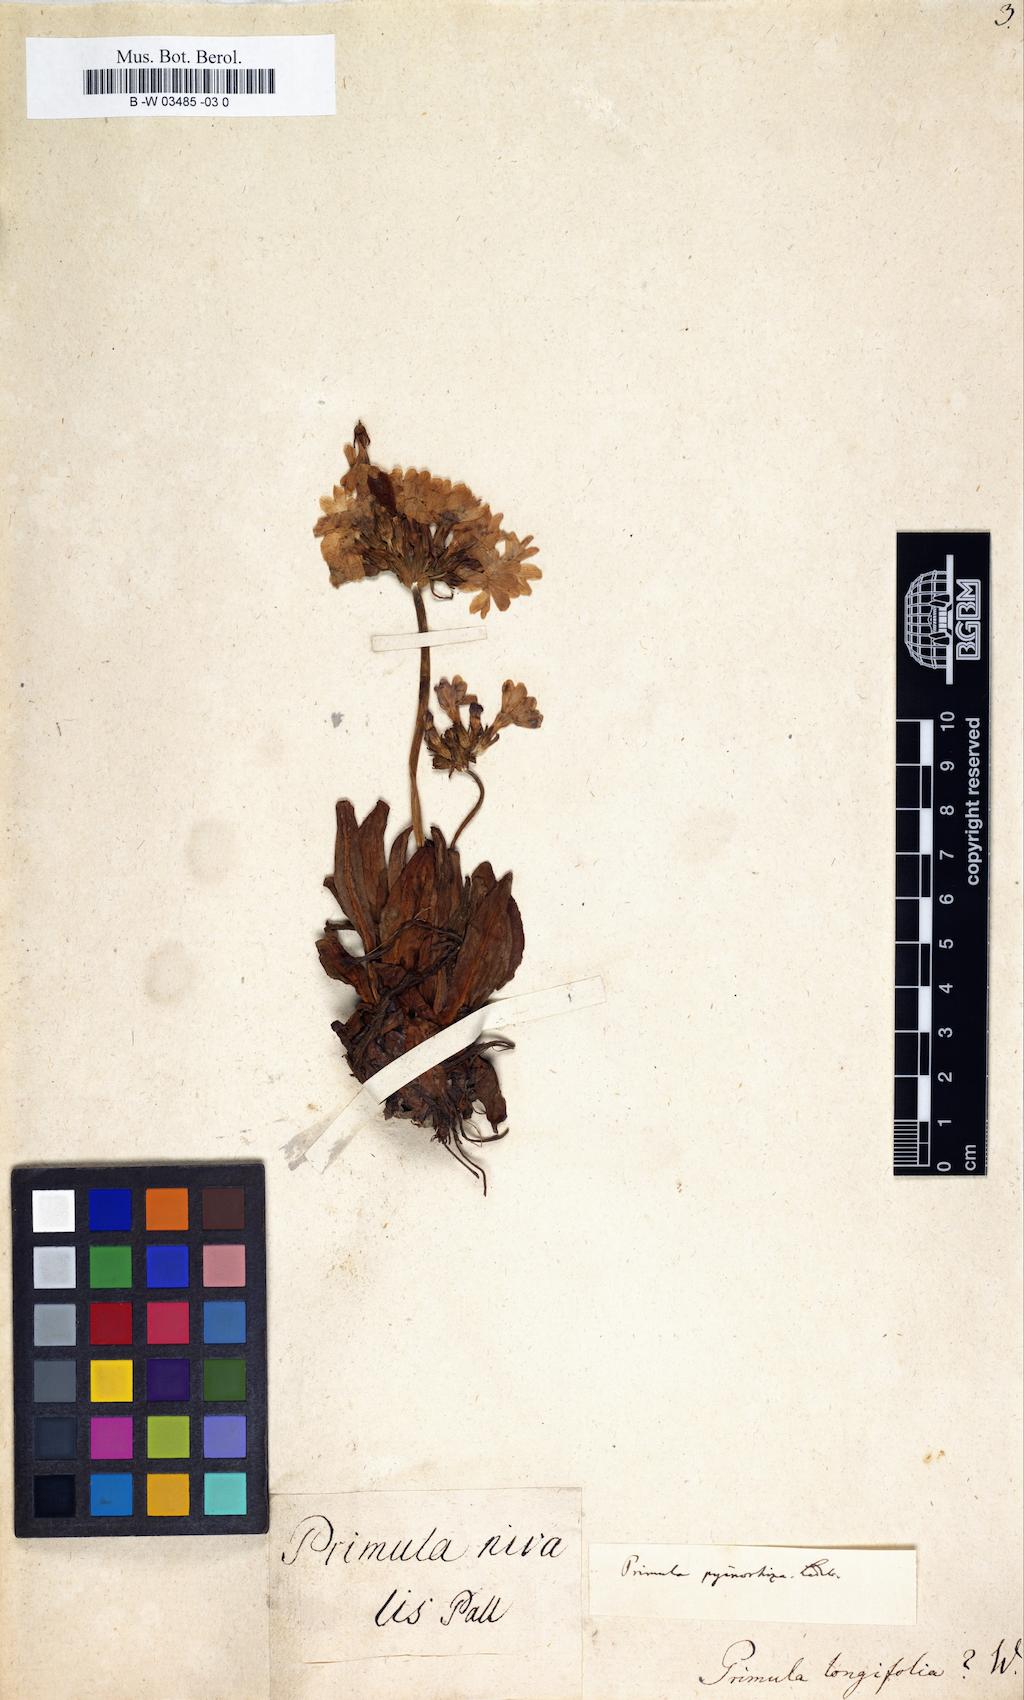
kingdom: Plantae
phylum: Tracheophyta
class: Magnoliopsida
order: Ericales
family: Primulaceae
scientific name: Primulaceae
